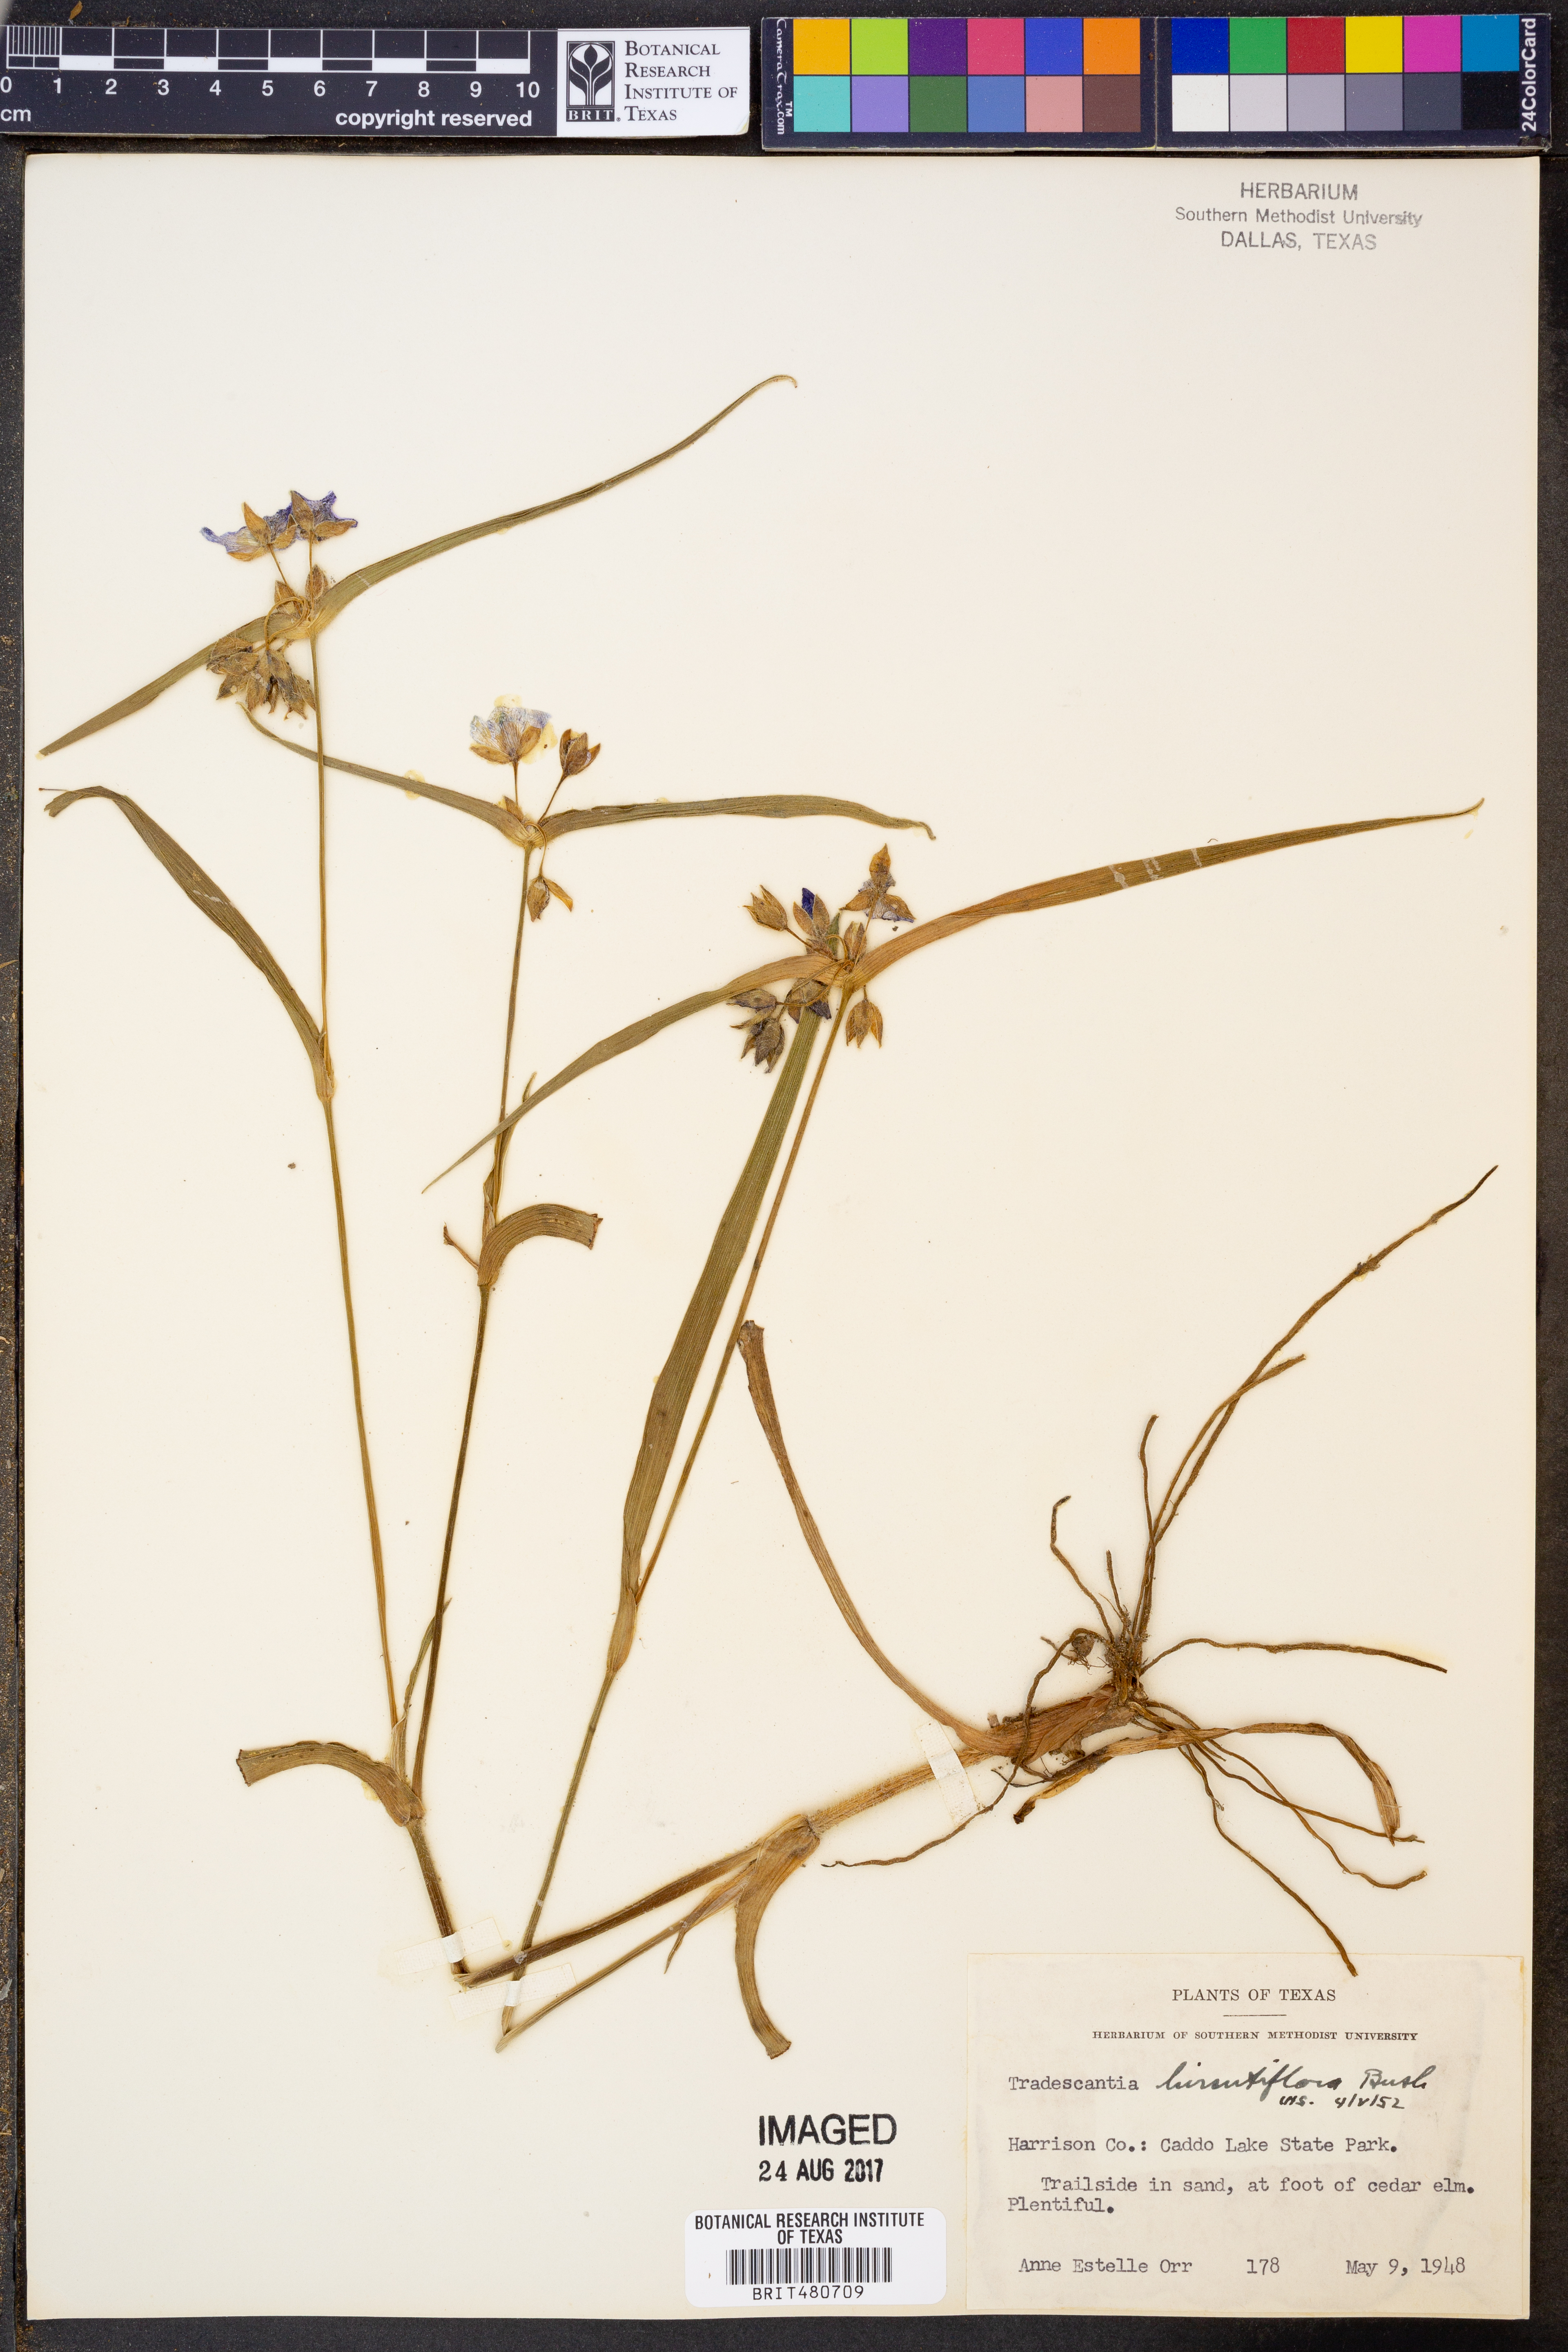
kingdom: Plantae
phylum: Tracheophyta
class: Liliopsida
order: Commelinales
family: Commelinaceae
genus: Tradescantia
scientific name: Tradescantia hirsutiflora
